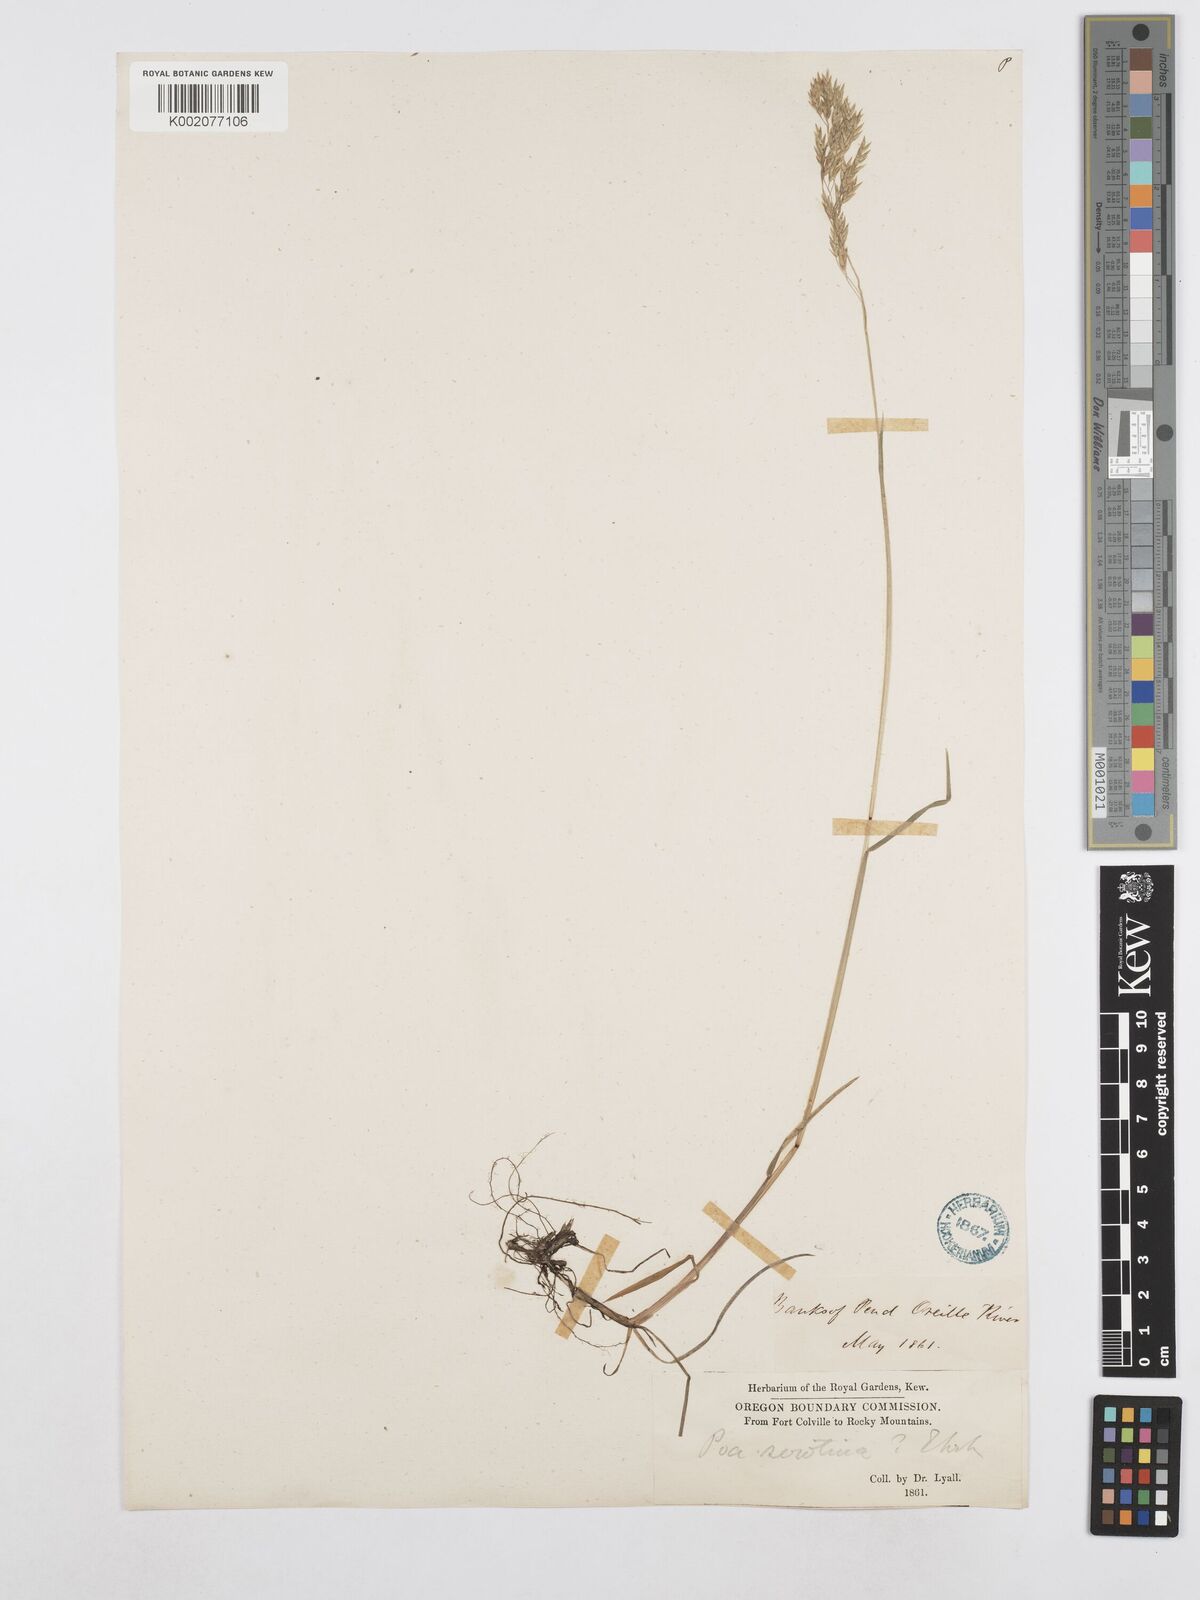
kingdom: Plantae
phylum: Tracheophyta
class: Liliopsida
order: Poales
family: Poaceae
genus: Poa
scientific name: Poa palustris
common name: Swamp meadow-grass
